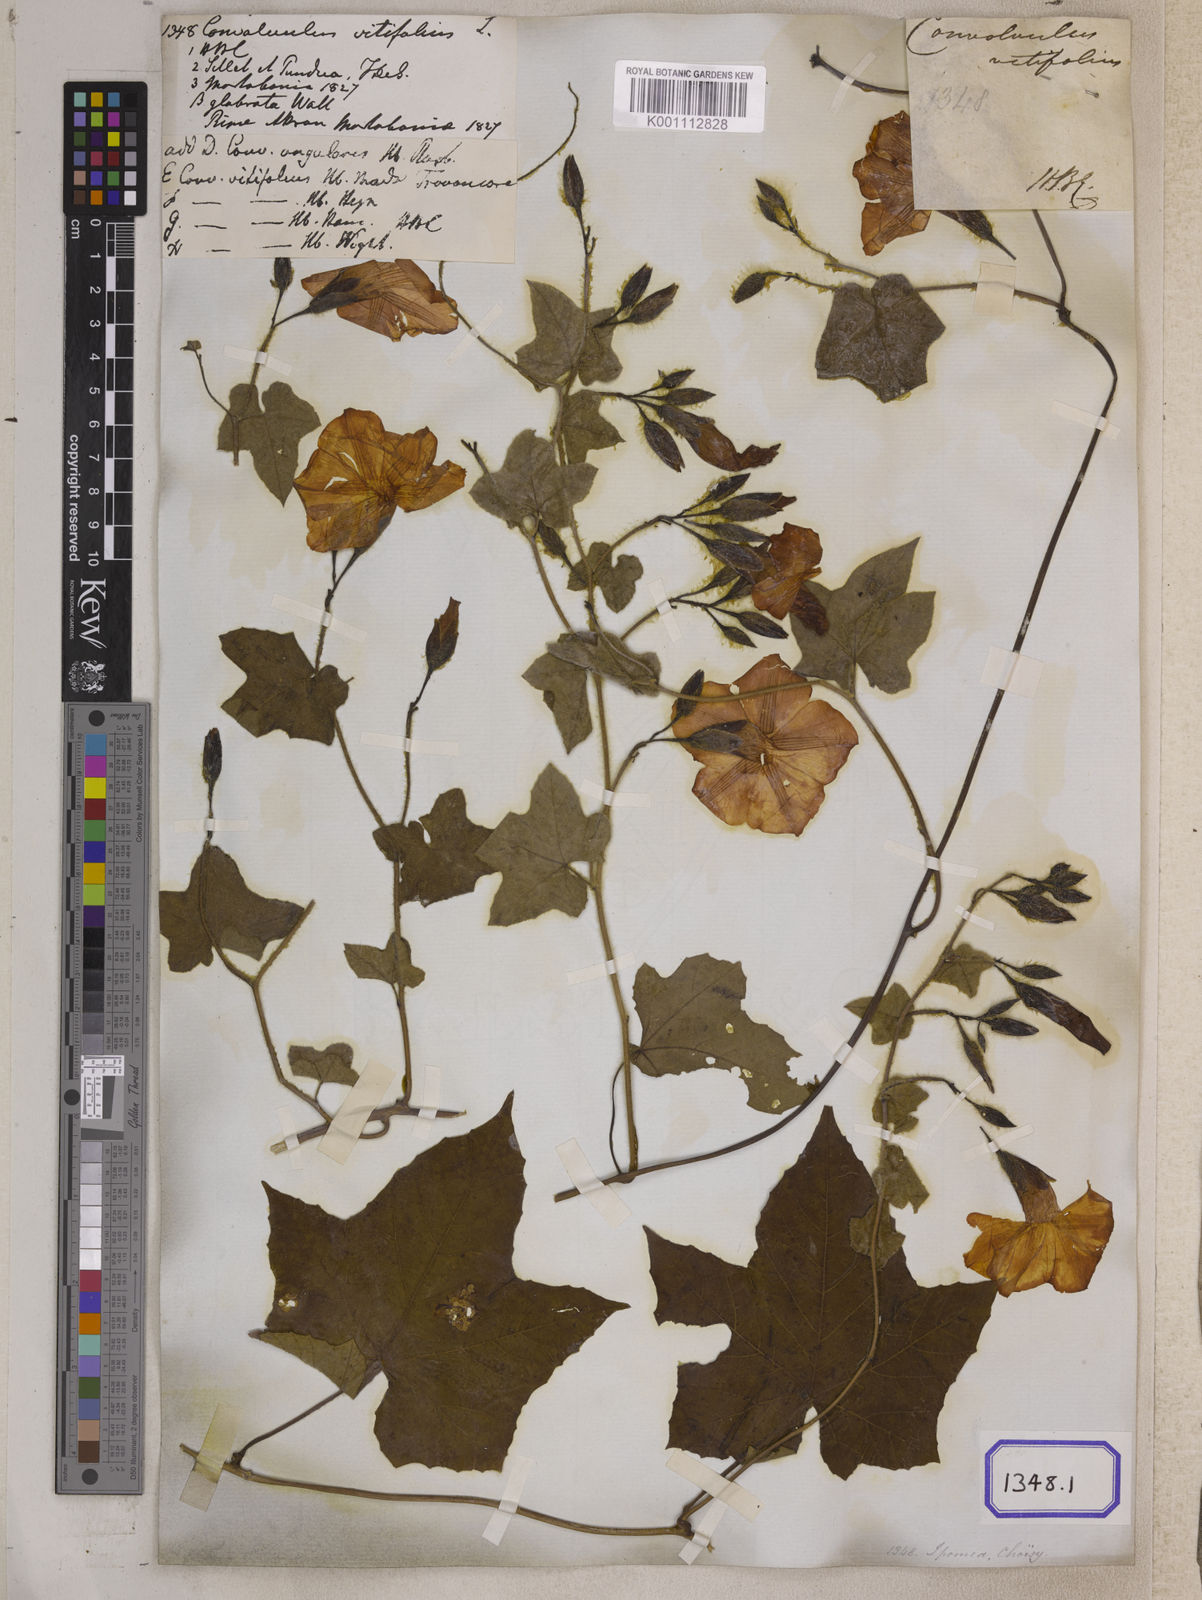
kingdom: Plantae
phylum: Tracheophyta
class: Magnoliopsida
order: Solanales
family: Convolvulaceae
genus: Convolvulus
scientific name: Convolvulus
